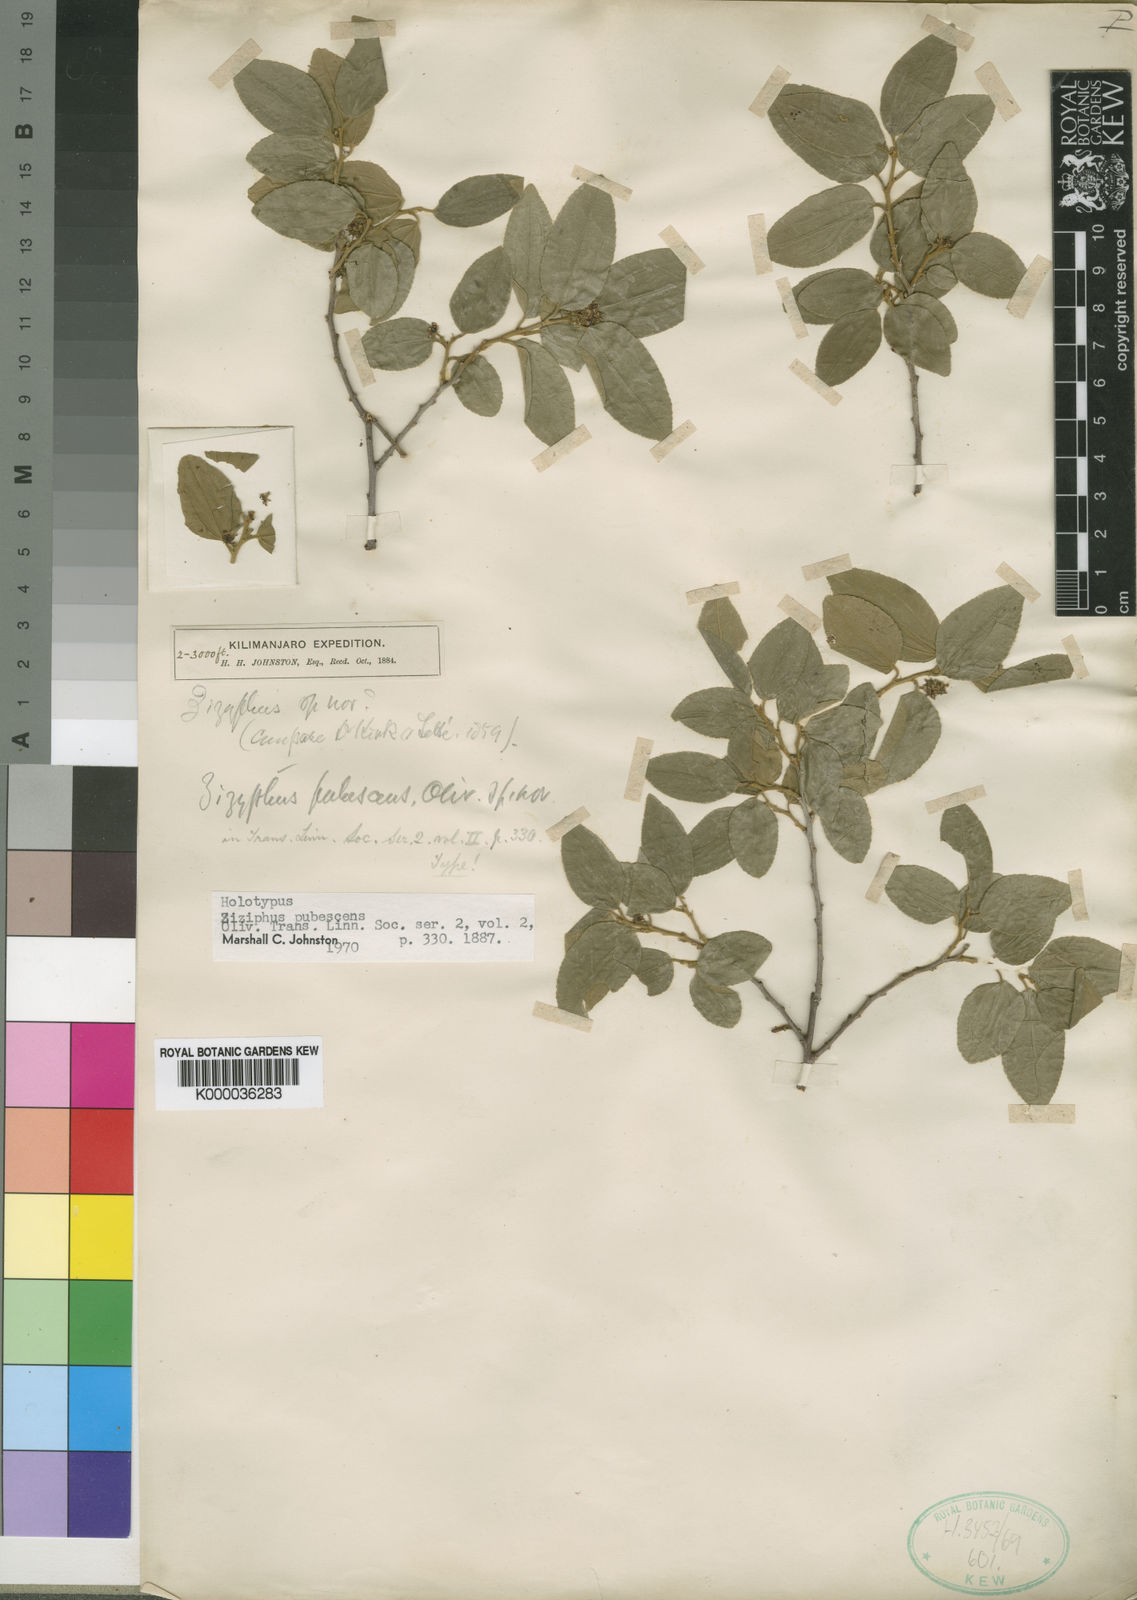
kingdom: Plantae
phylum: Tracheophyta
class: Magnoliopsida
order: Rosales
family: Rhamnaceae
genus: Ziziphus
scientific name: Ziziphus pubescens
